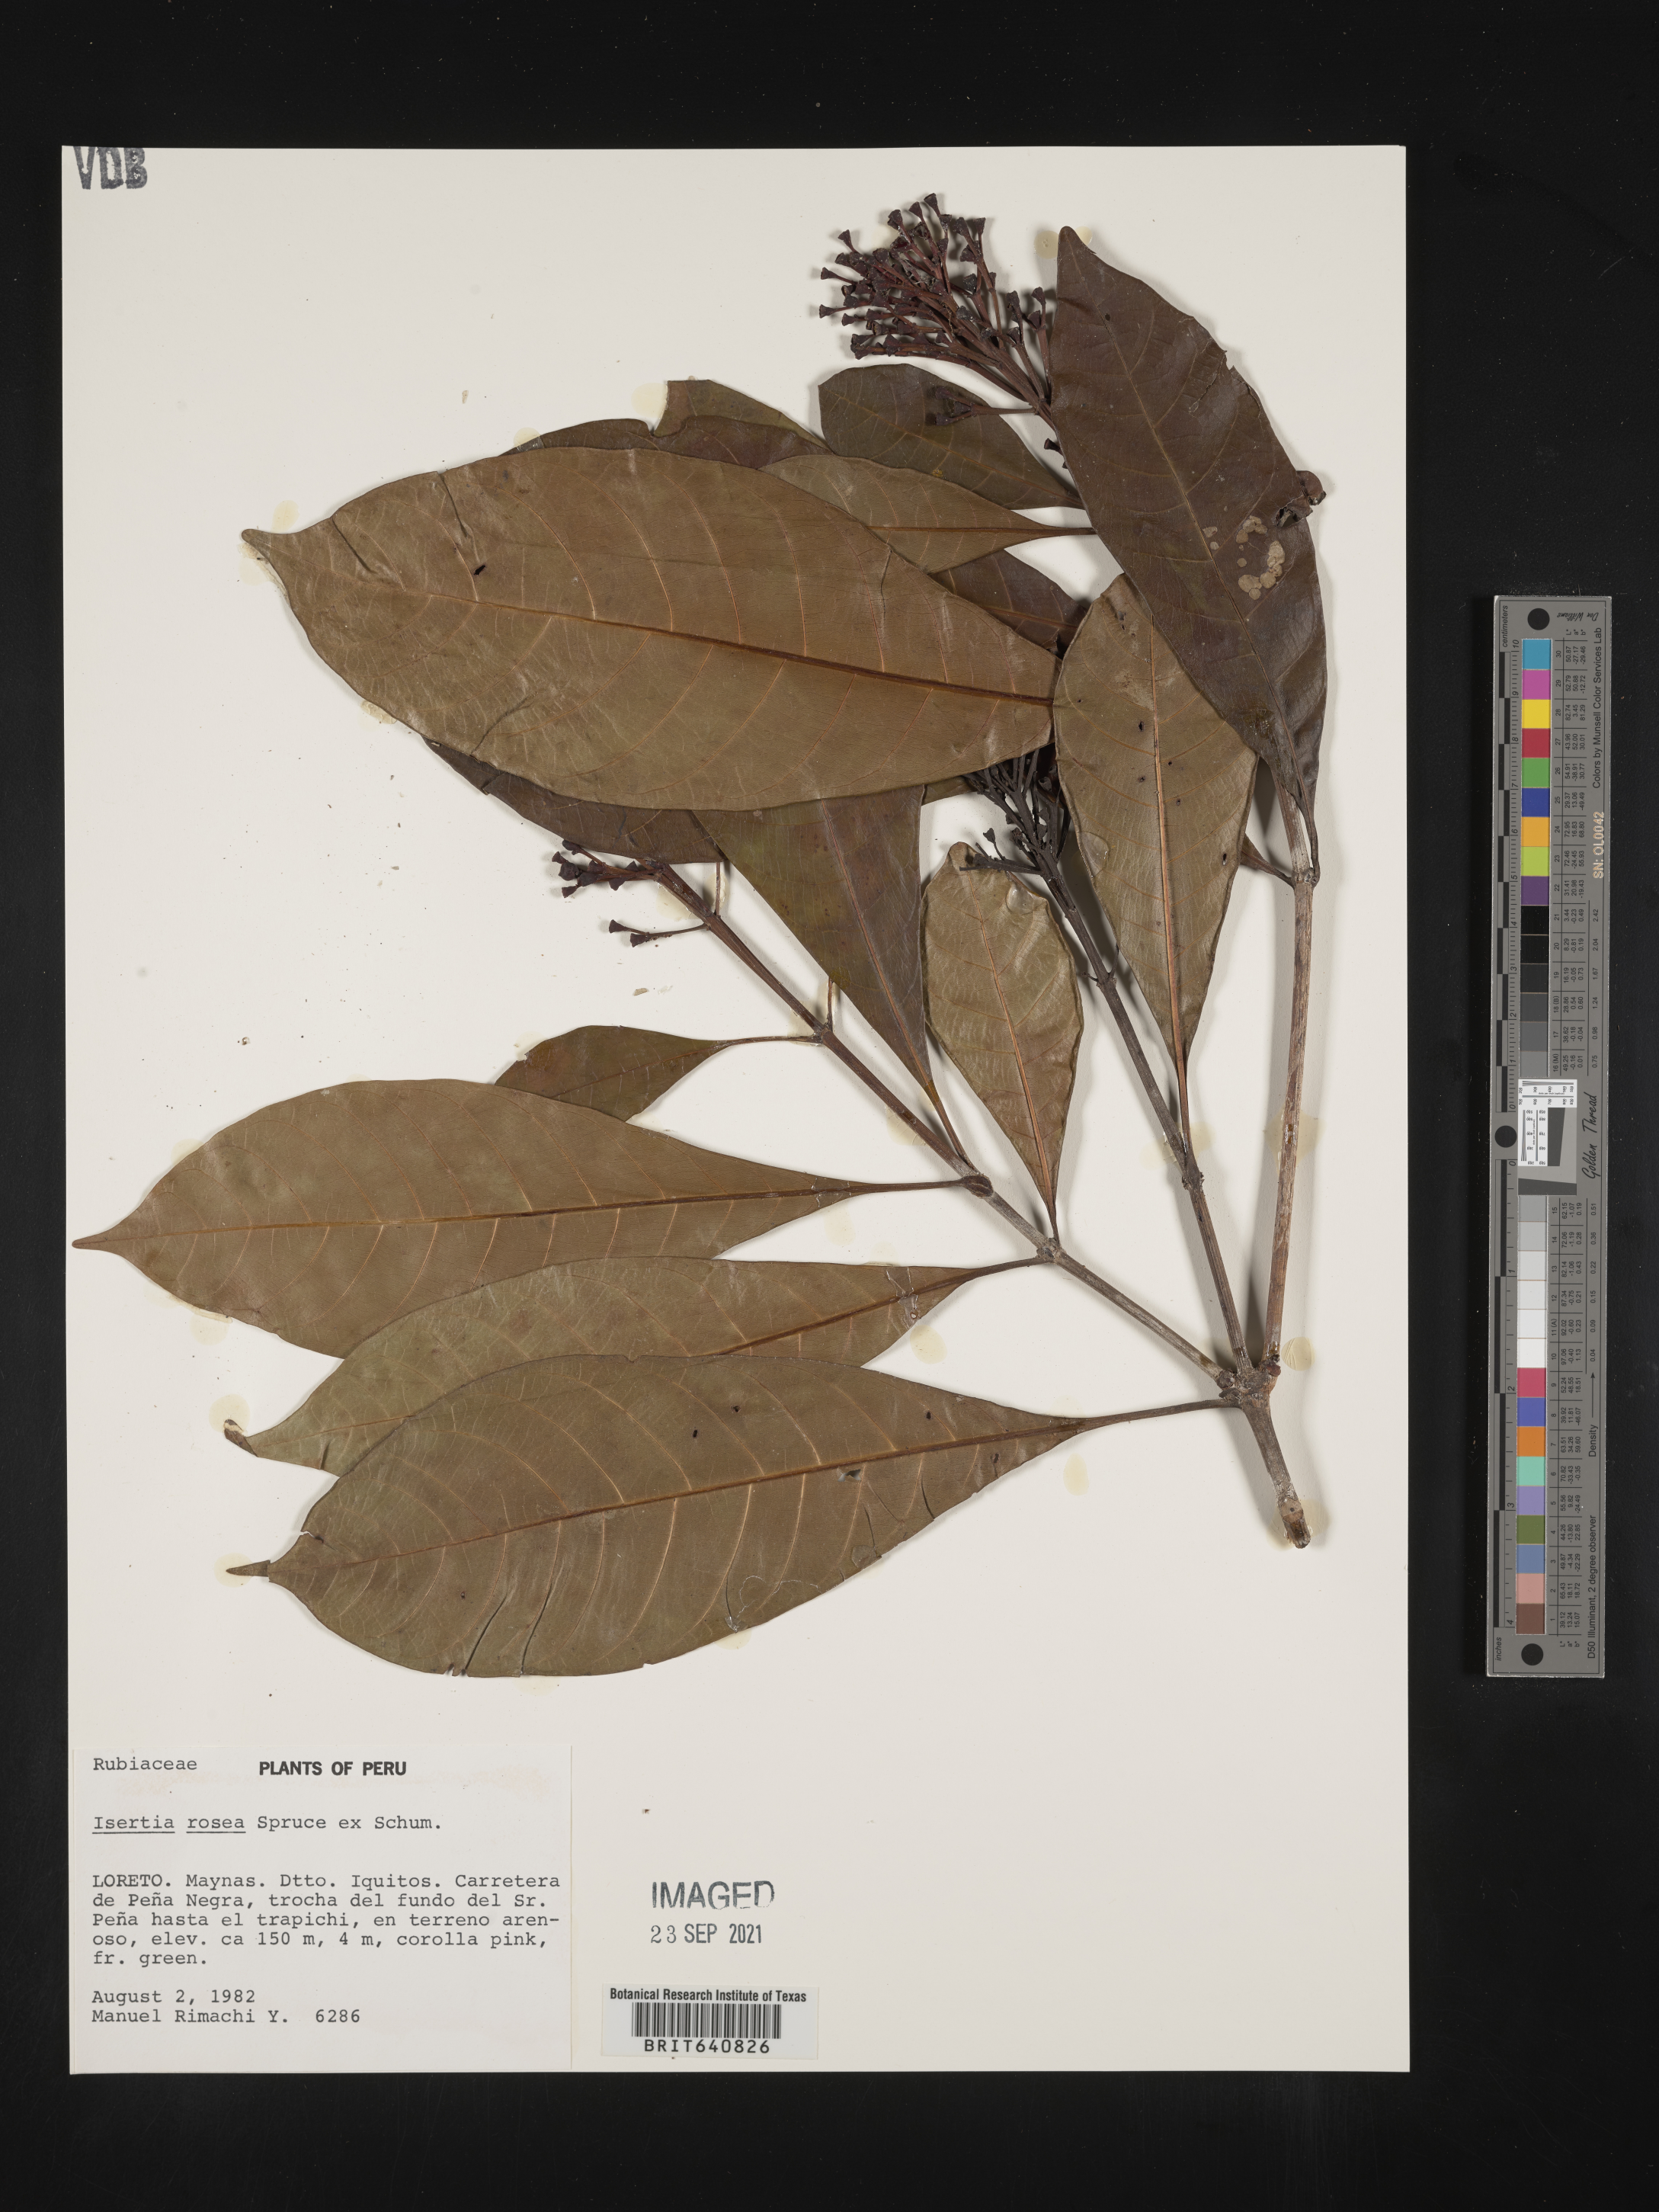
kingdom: Plantae
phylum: Tracheophyta
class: Magnoliopsida
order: Gentianales
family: Rubiaceae
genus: Isertia
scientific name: Isertia
